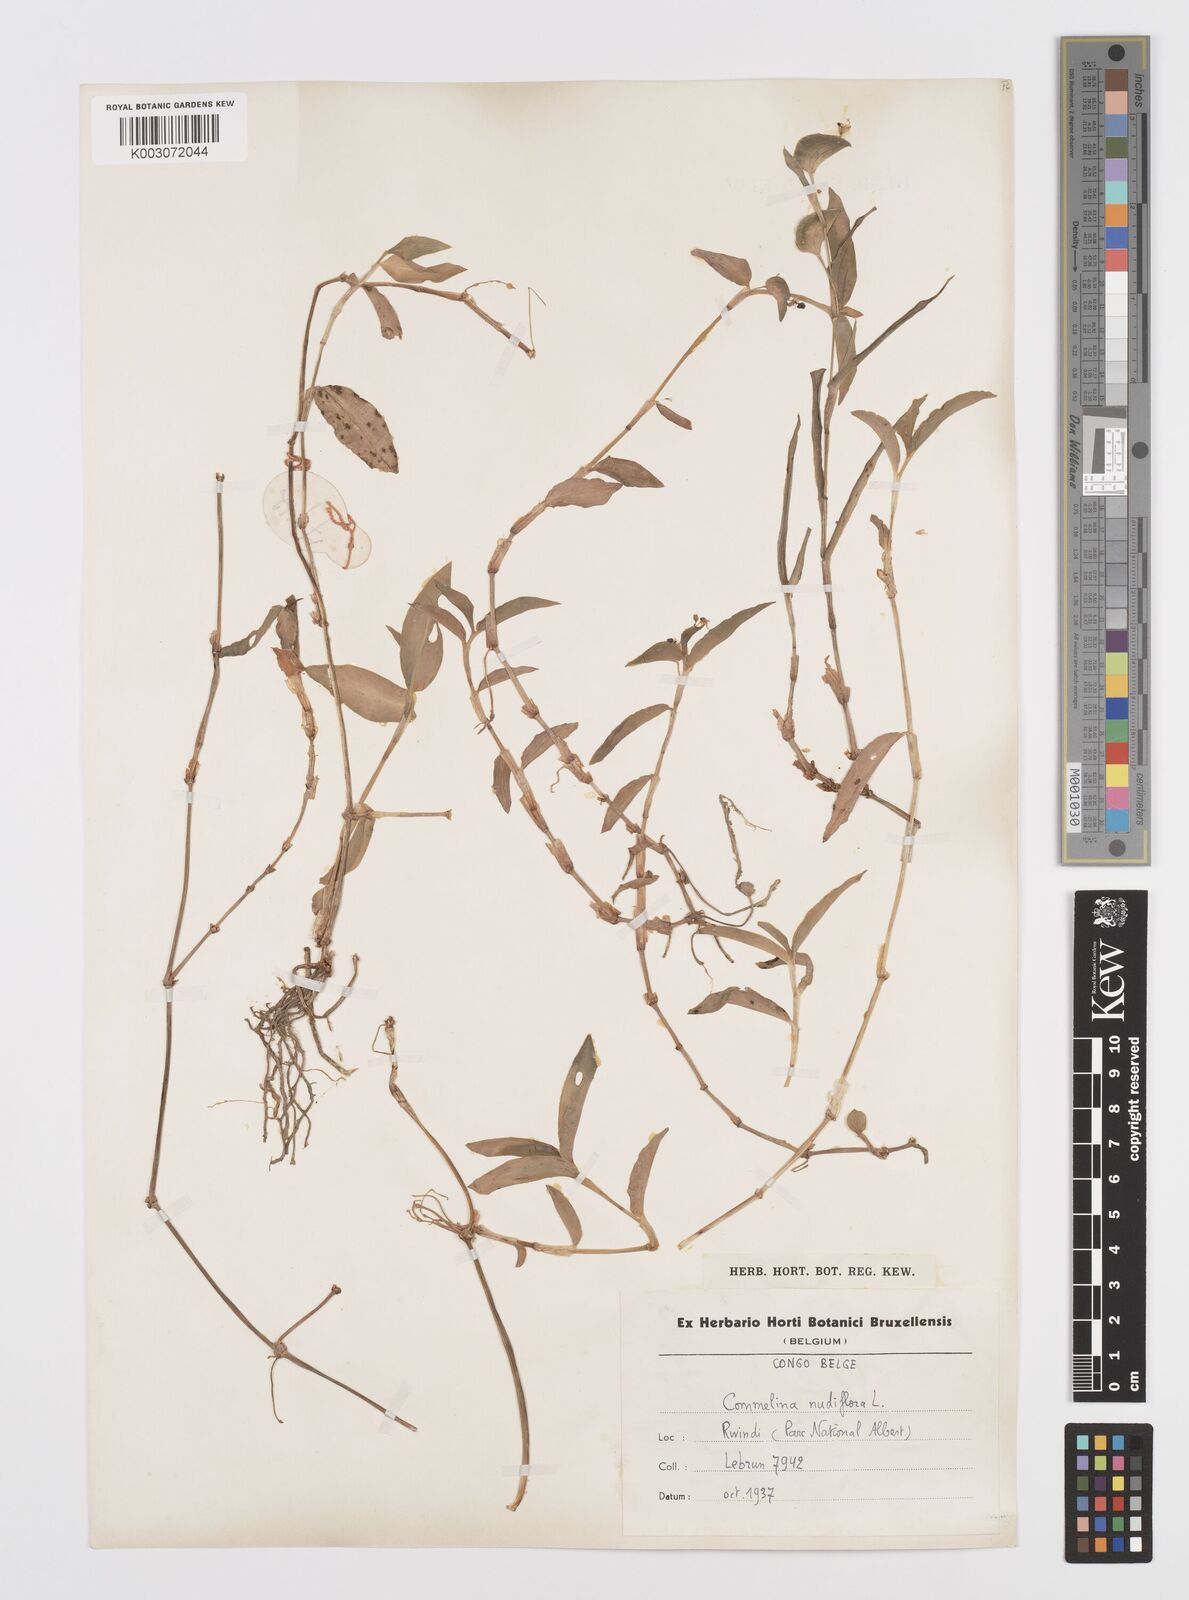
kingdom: Plantae
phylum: Tracheophyta
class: Liliopsida
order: Commelinales
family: Commelinaceae
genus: Commelina
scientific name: Commelina diffusa
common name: Climbing dayflower
